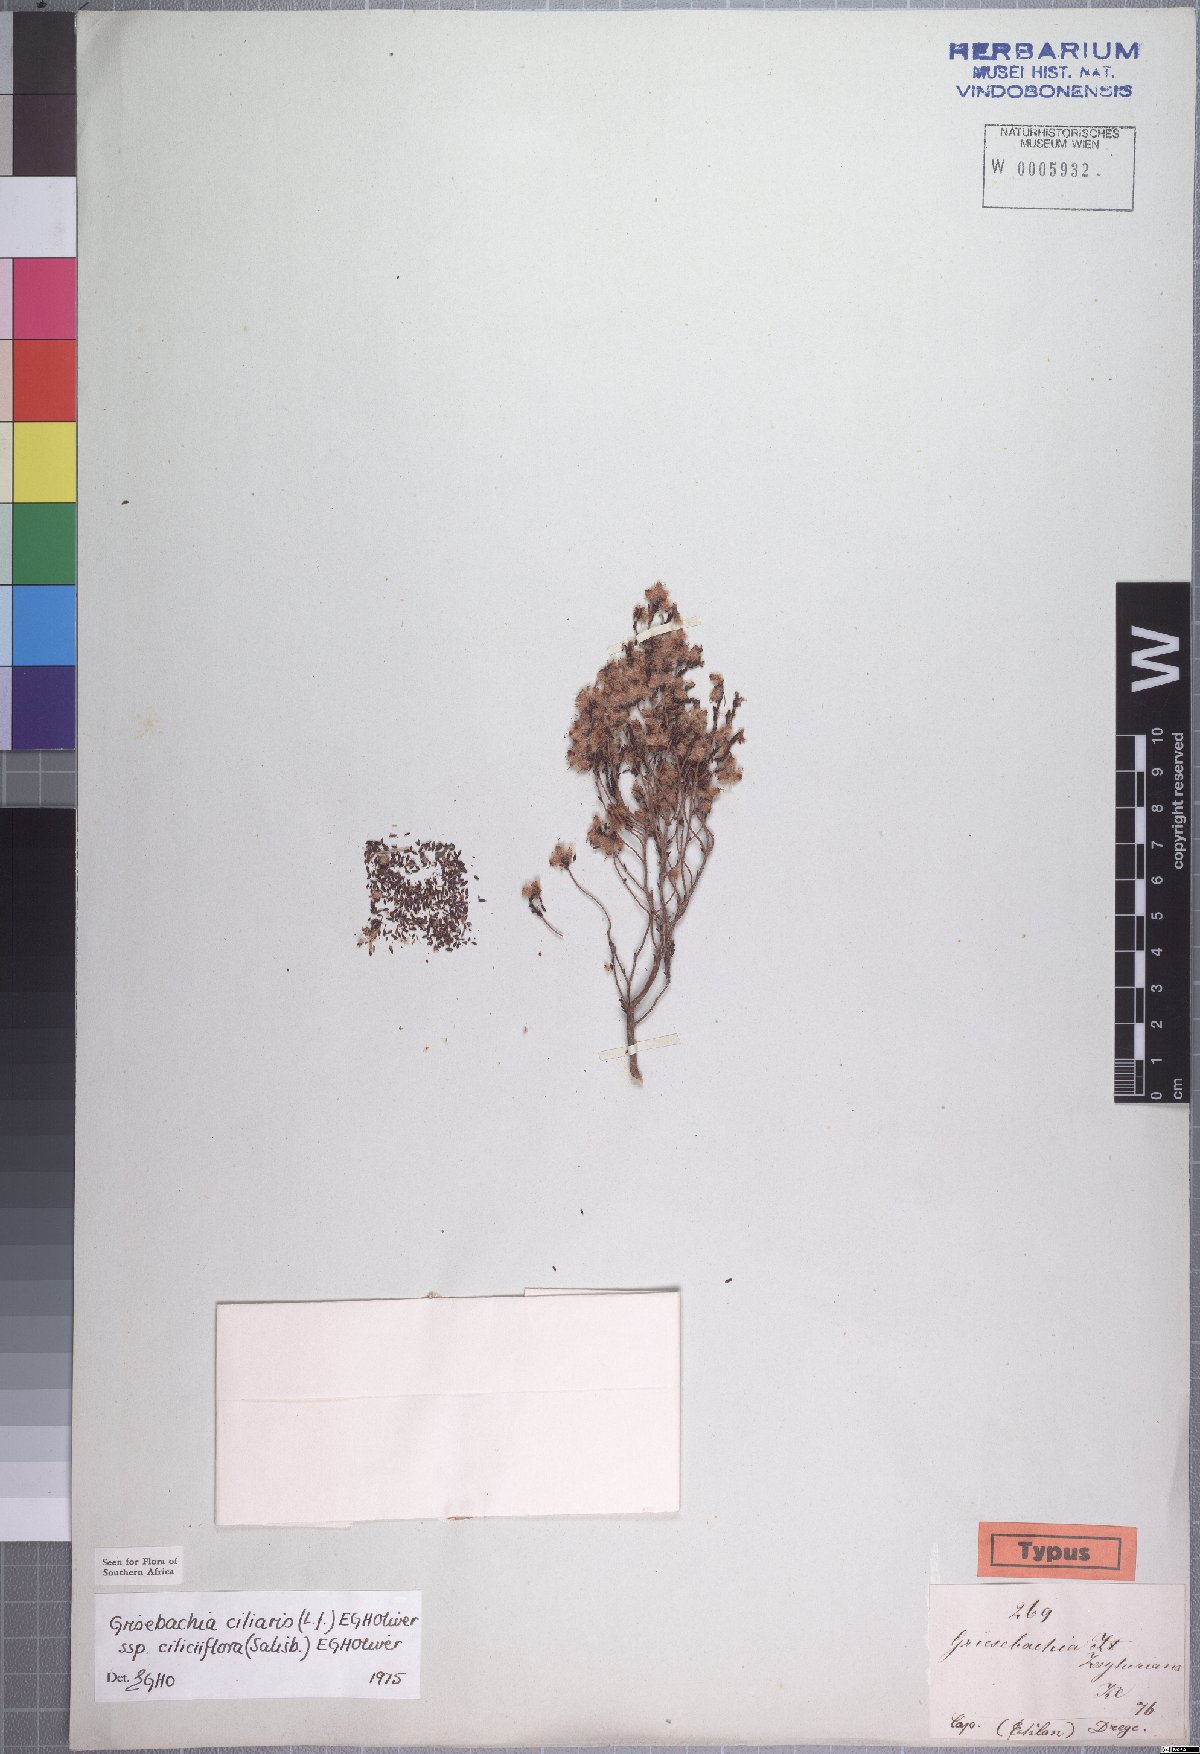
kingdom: Plantae
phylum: Tracheophyta
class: Magnoliopsida
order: Ericales
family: Ericaceae
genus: Erica
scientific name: Erica plumosa
